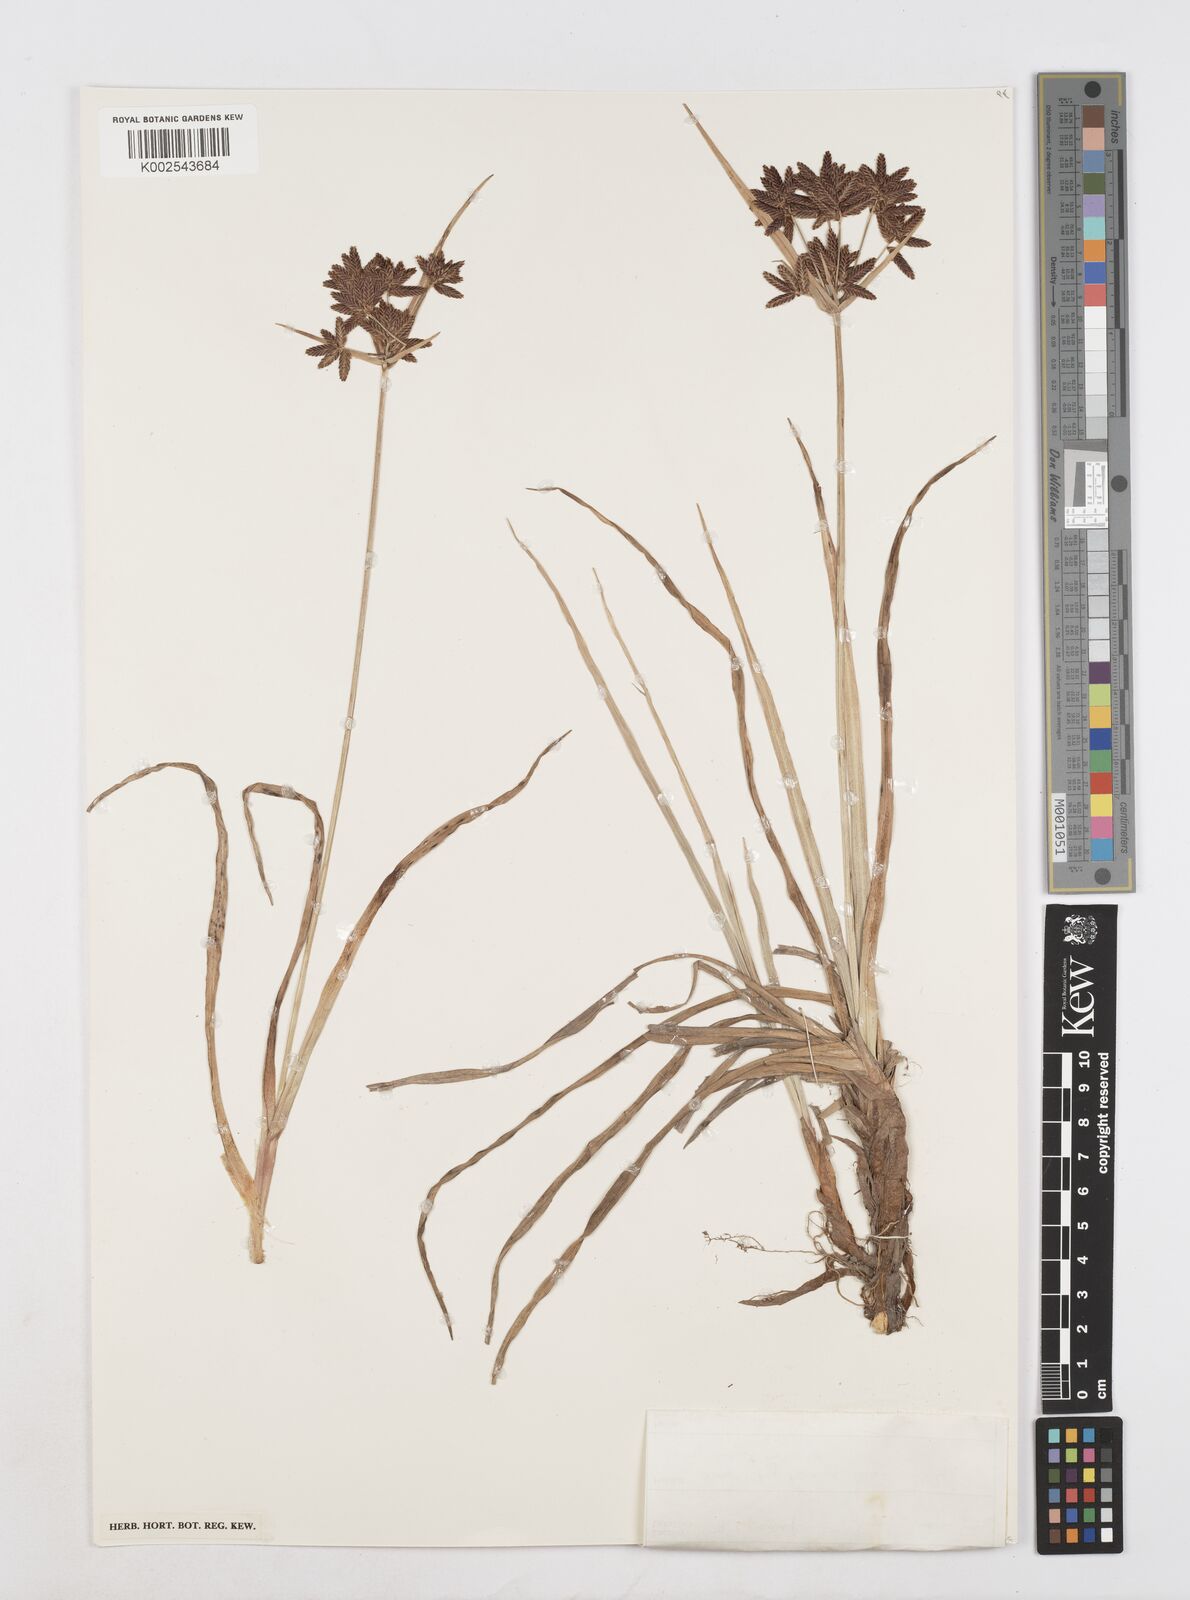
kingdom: Plantae
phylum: Tracheophyta
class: Liliopsida
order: Poales
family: Cyperaceae
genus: Cyperus
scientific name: Cyperus nitidus
